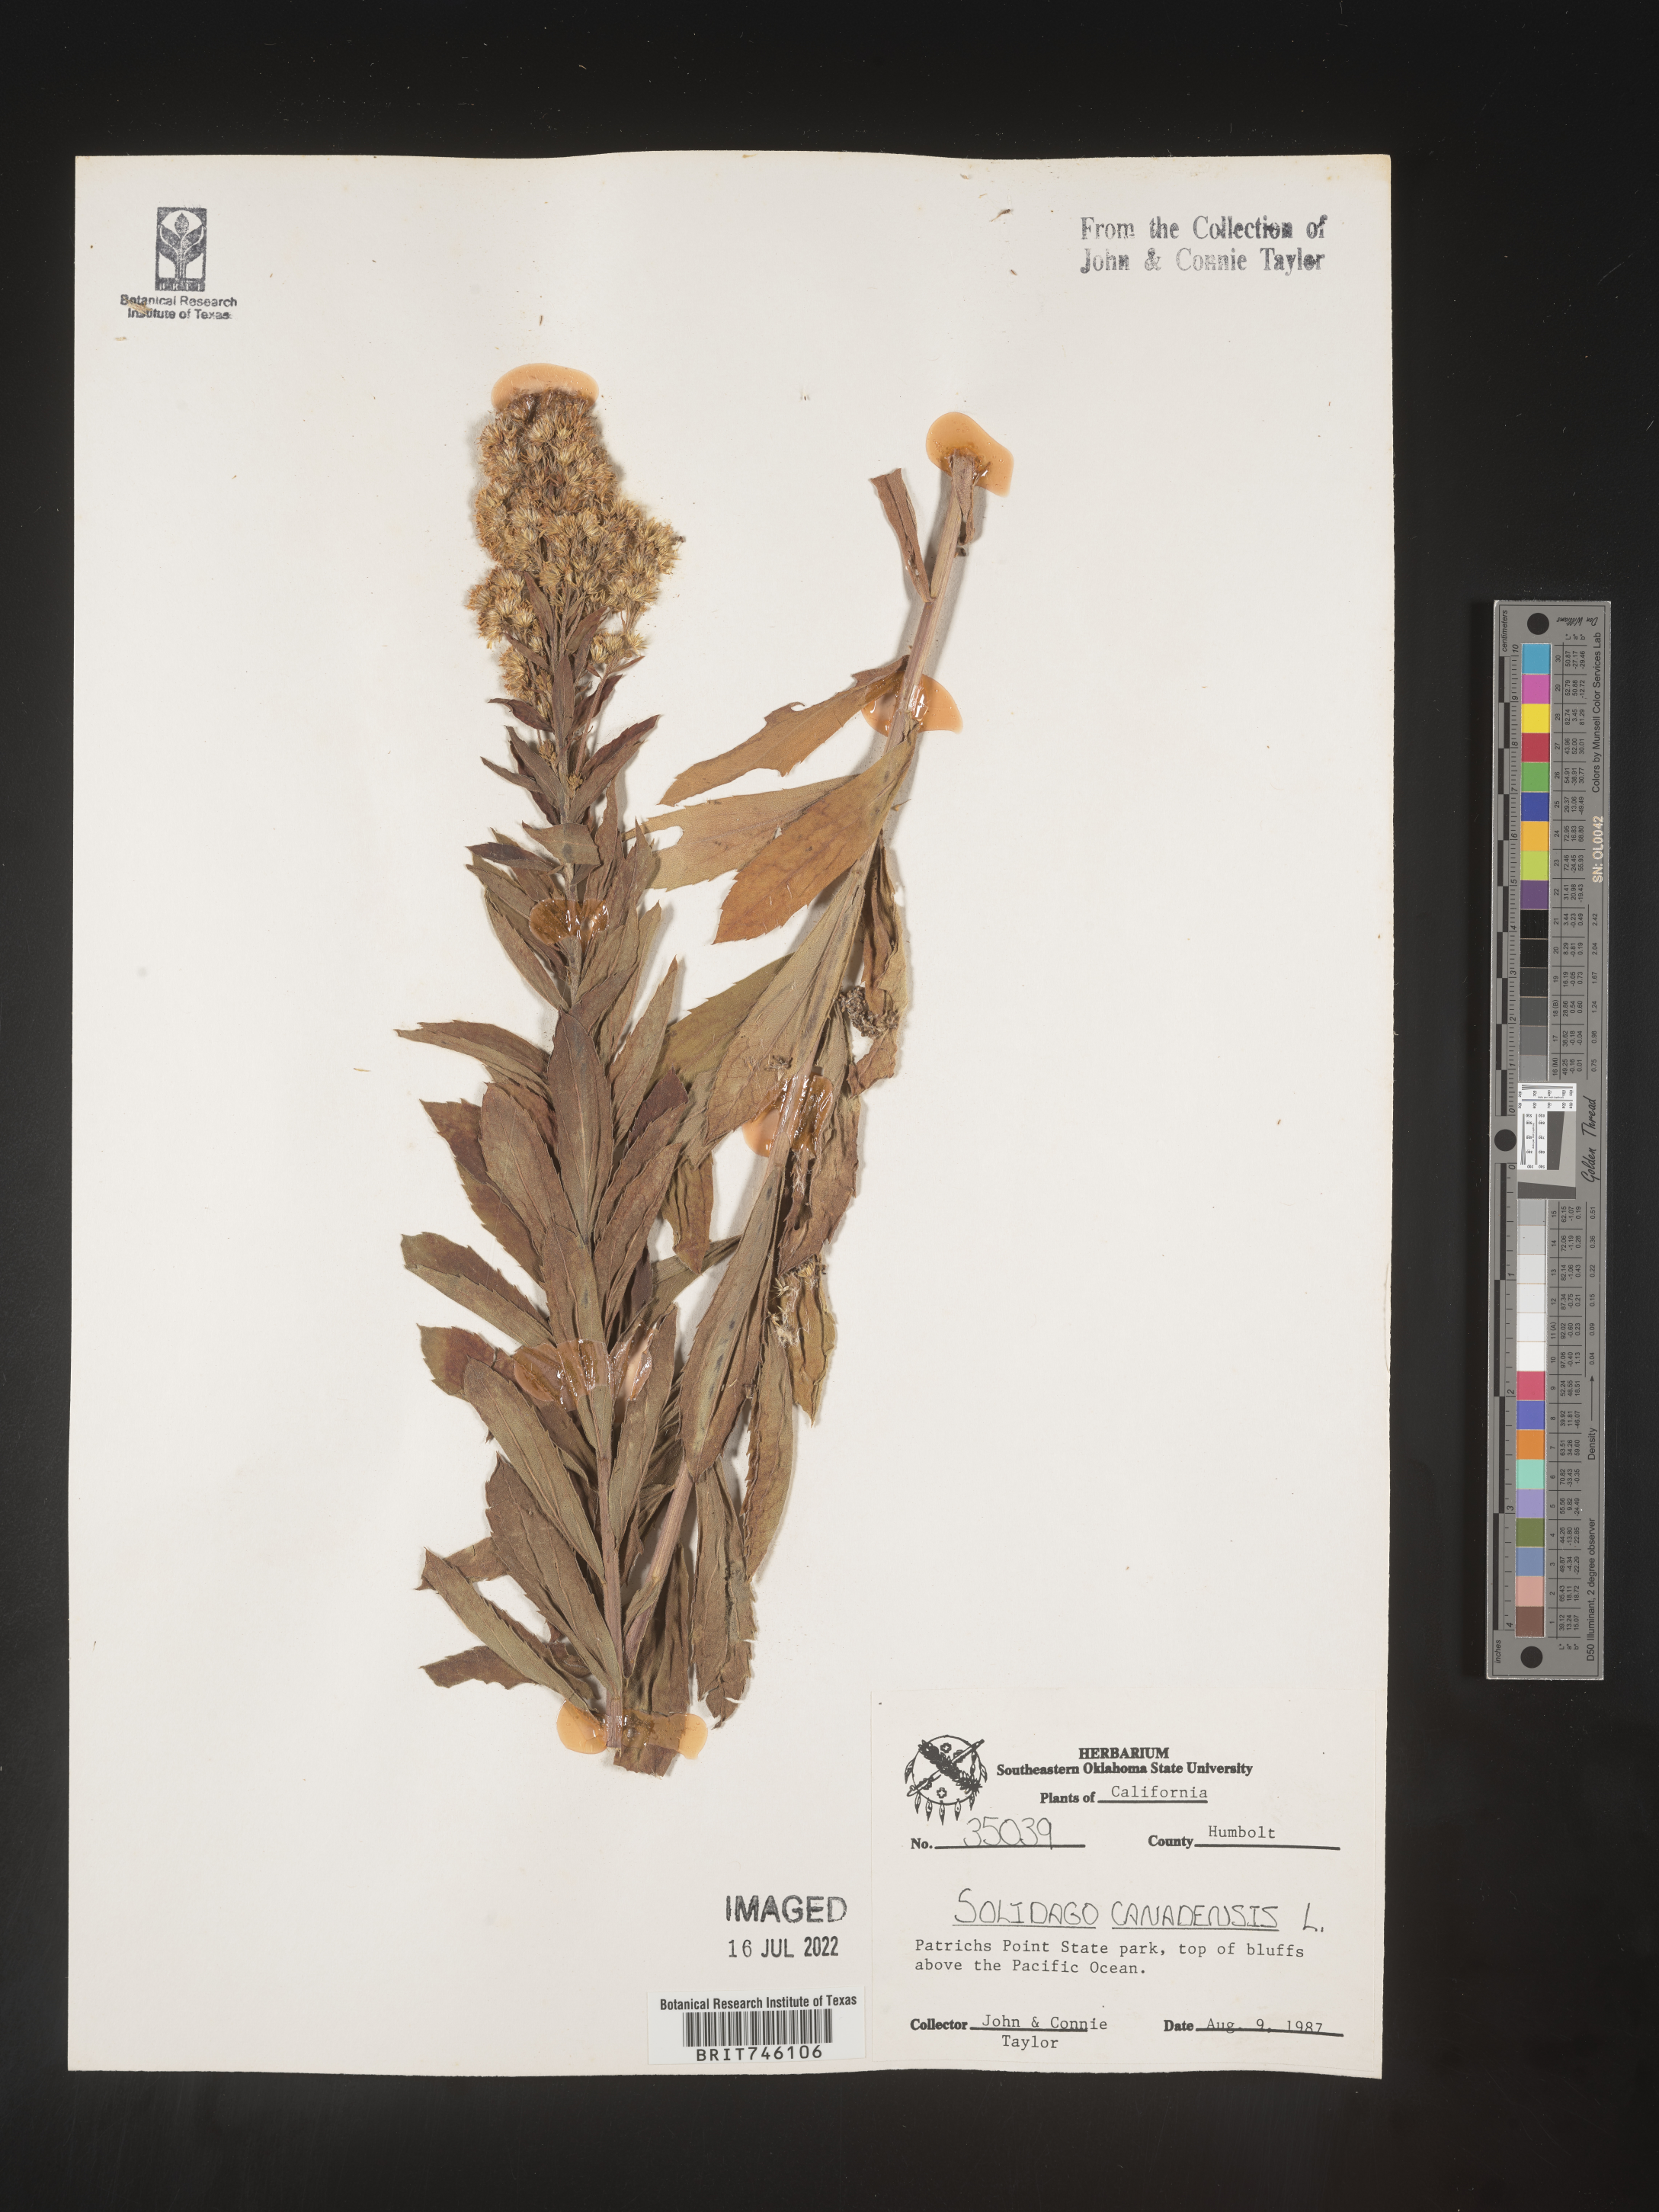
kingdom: Plantae
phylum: Tracheophyta
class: Magnoliopsida
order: Asterales
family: Asteraceae
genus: Solidago
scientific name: Solidago canadensis
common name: Canada goldenrod
